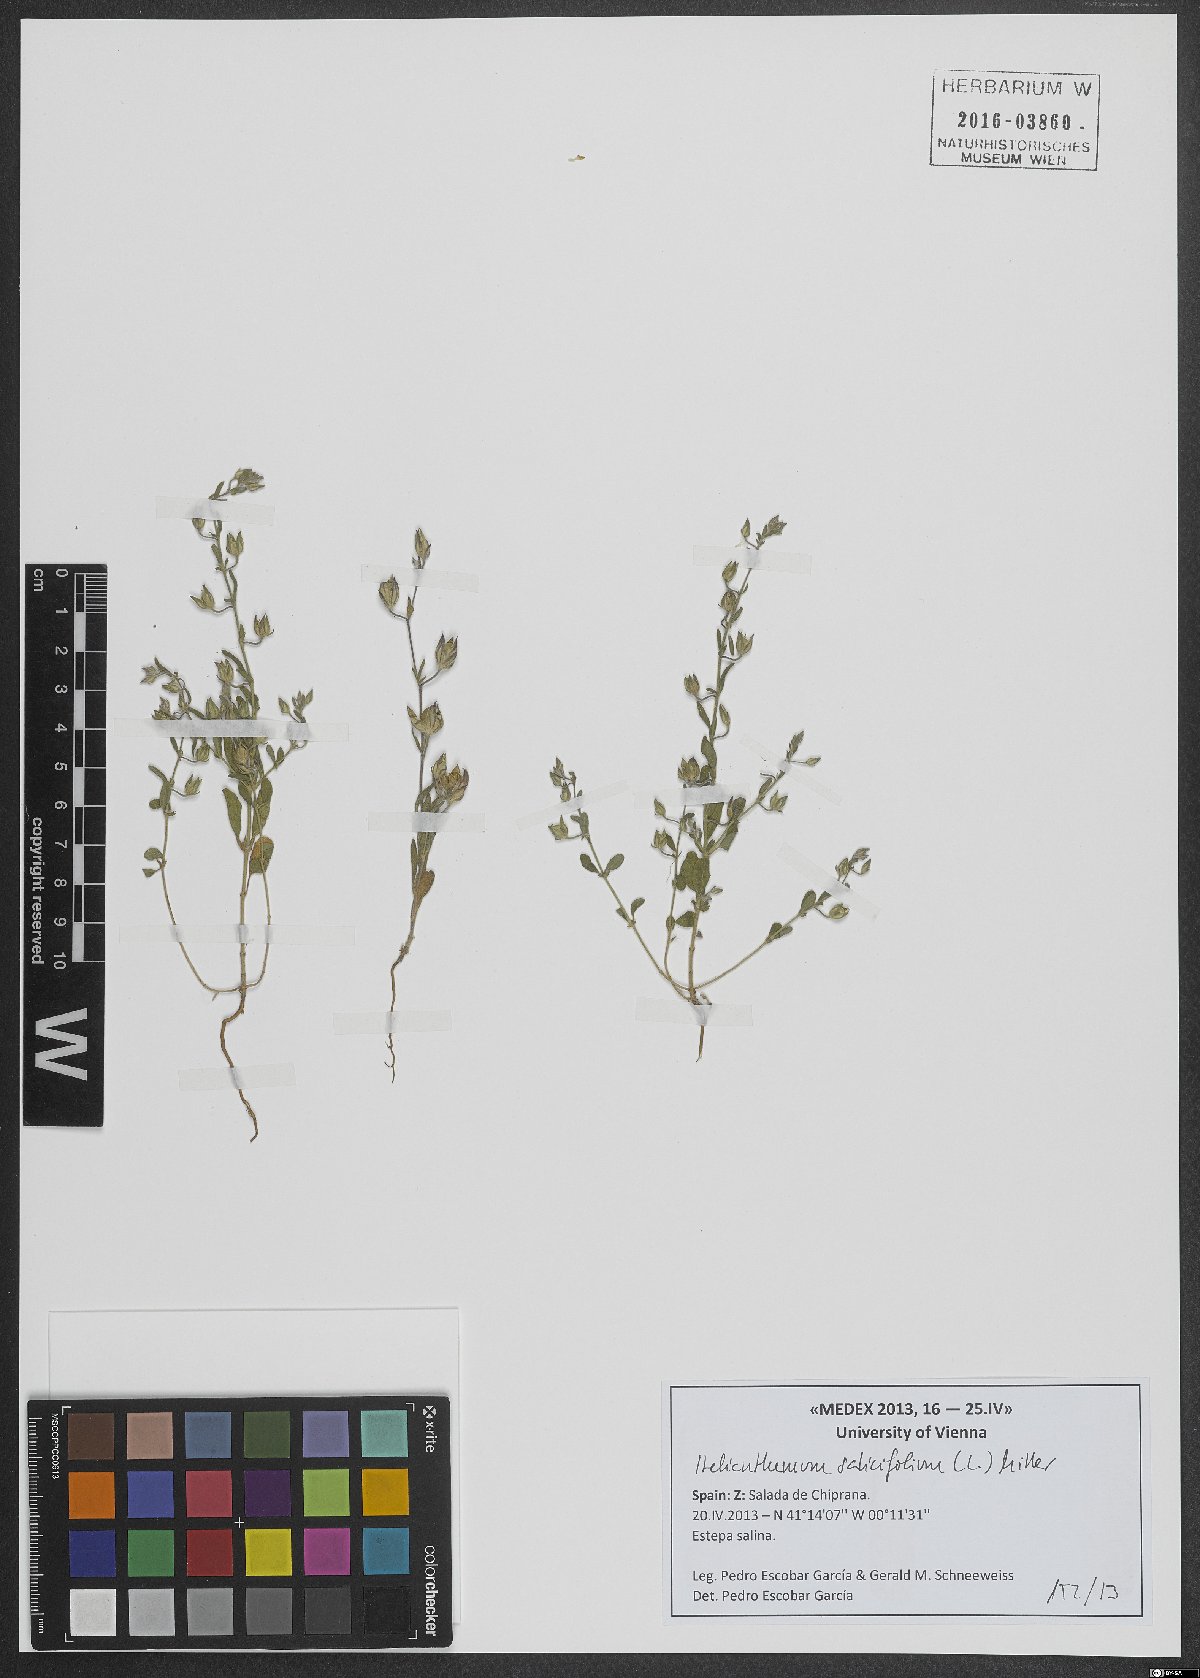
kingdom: Plantae
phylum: Tracheophyta
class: Magnoliopsida
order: Malvales
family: Cistaceae
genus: Helianthemum
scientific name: Helianthemum salicifolium
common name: Willowleaf frostweed
